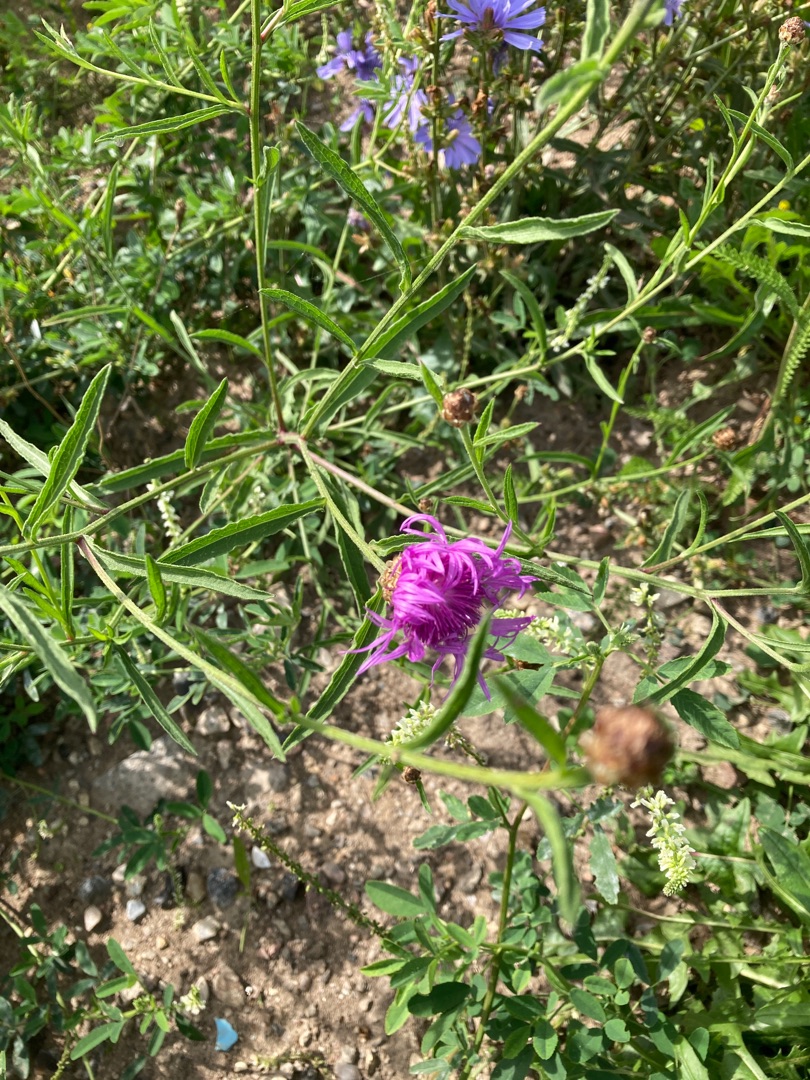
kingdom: Plantae
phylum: Tracheophyta
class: Magnoliopsida
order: Asterales
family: Asteraceae
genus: Centaurea
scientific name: Centaurea jacea
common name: Almindelig knopurt
